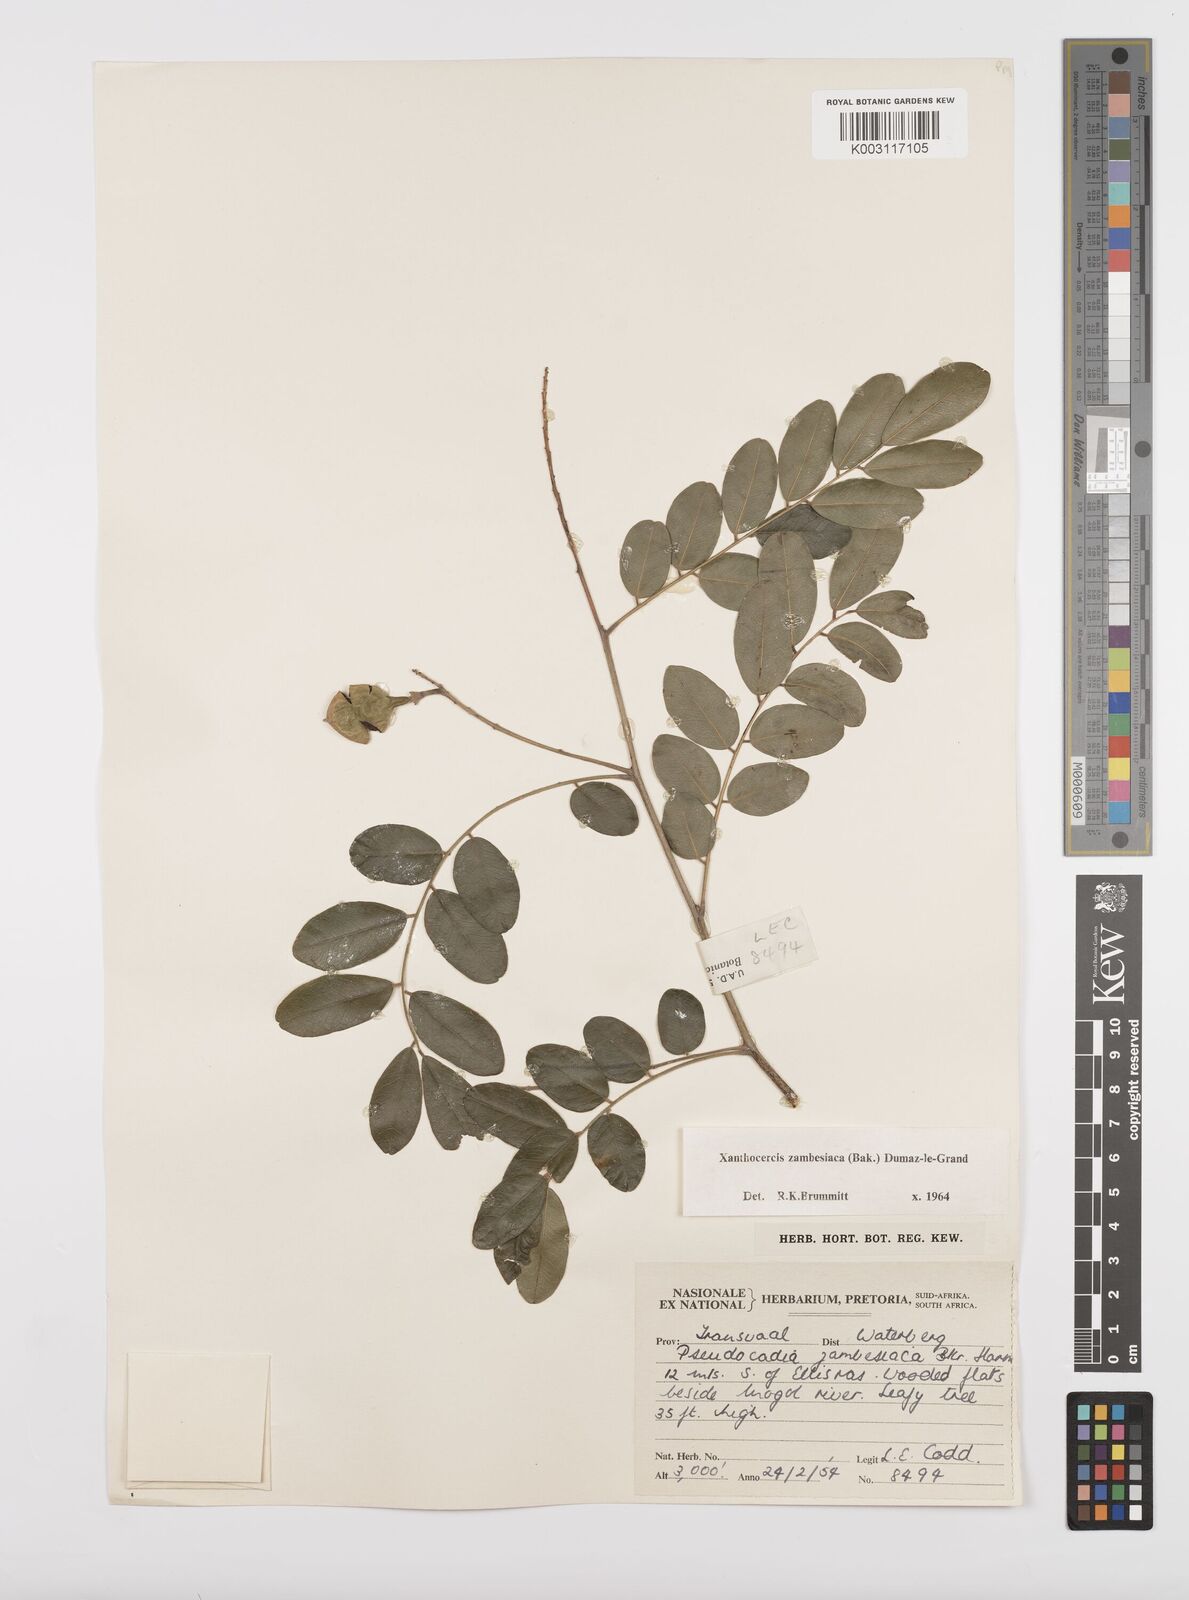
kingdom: Plantae
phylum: Tracheophyta
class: Magnoliopsida
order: Fabales
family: Fabaceae
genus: Xanthocercis
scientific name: Xanthocercis zambesiaca
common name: Nyala-tree
